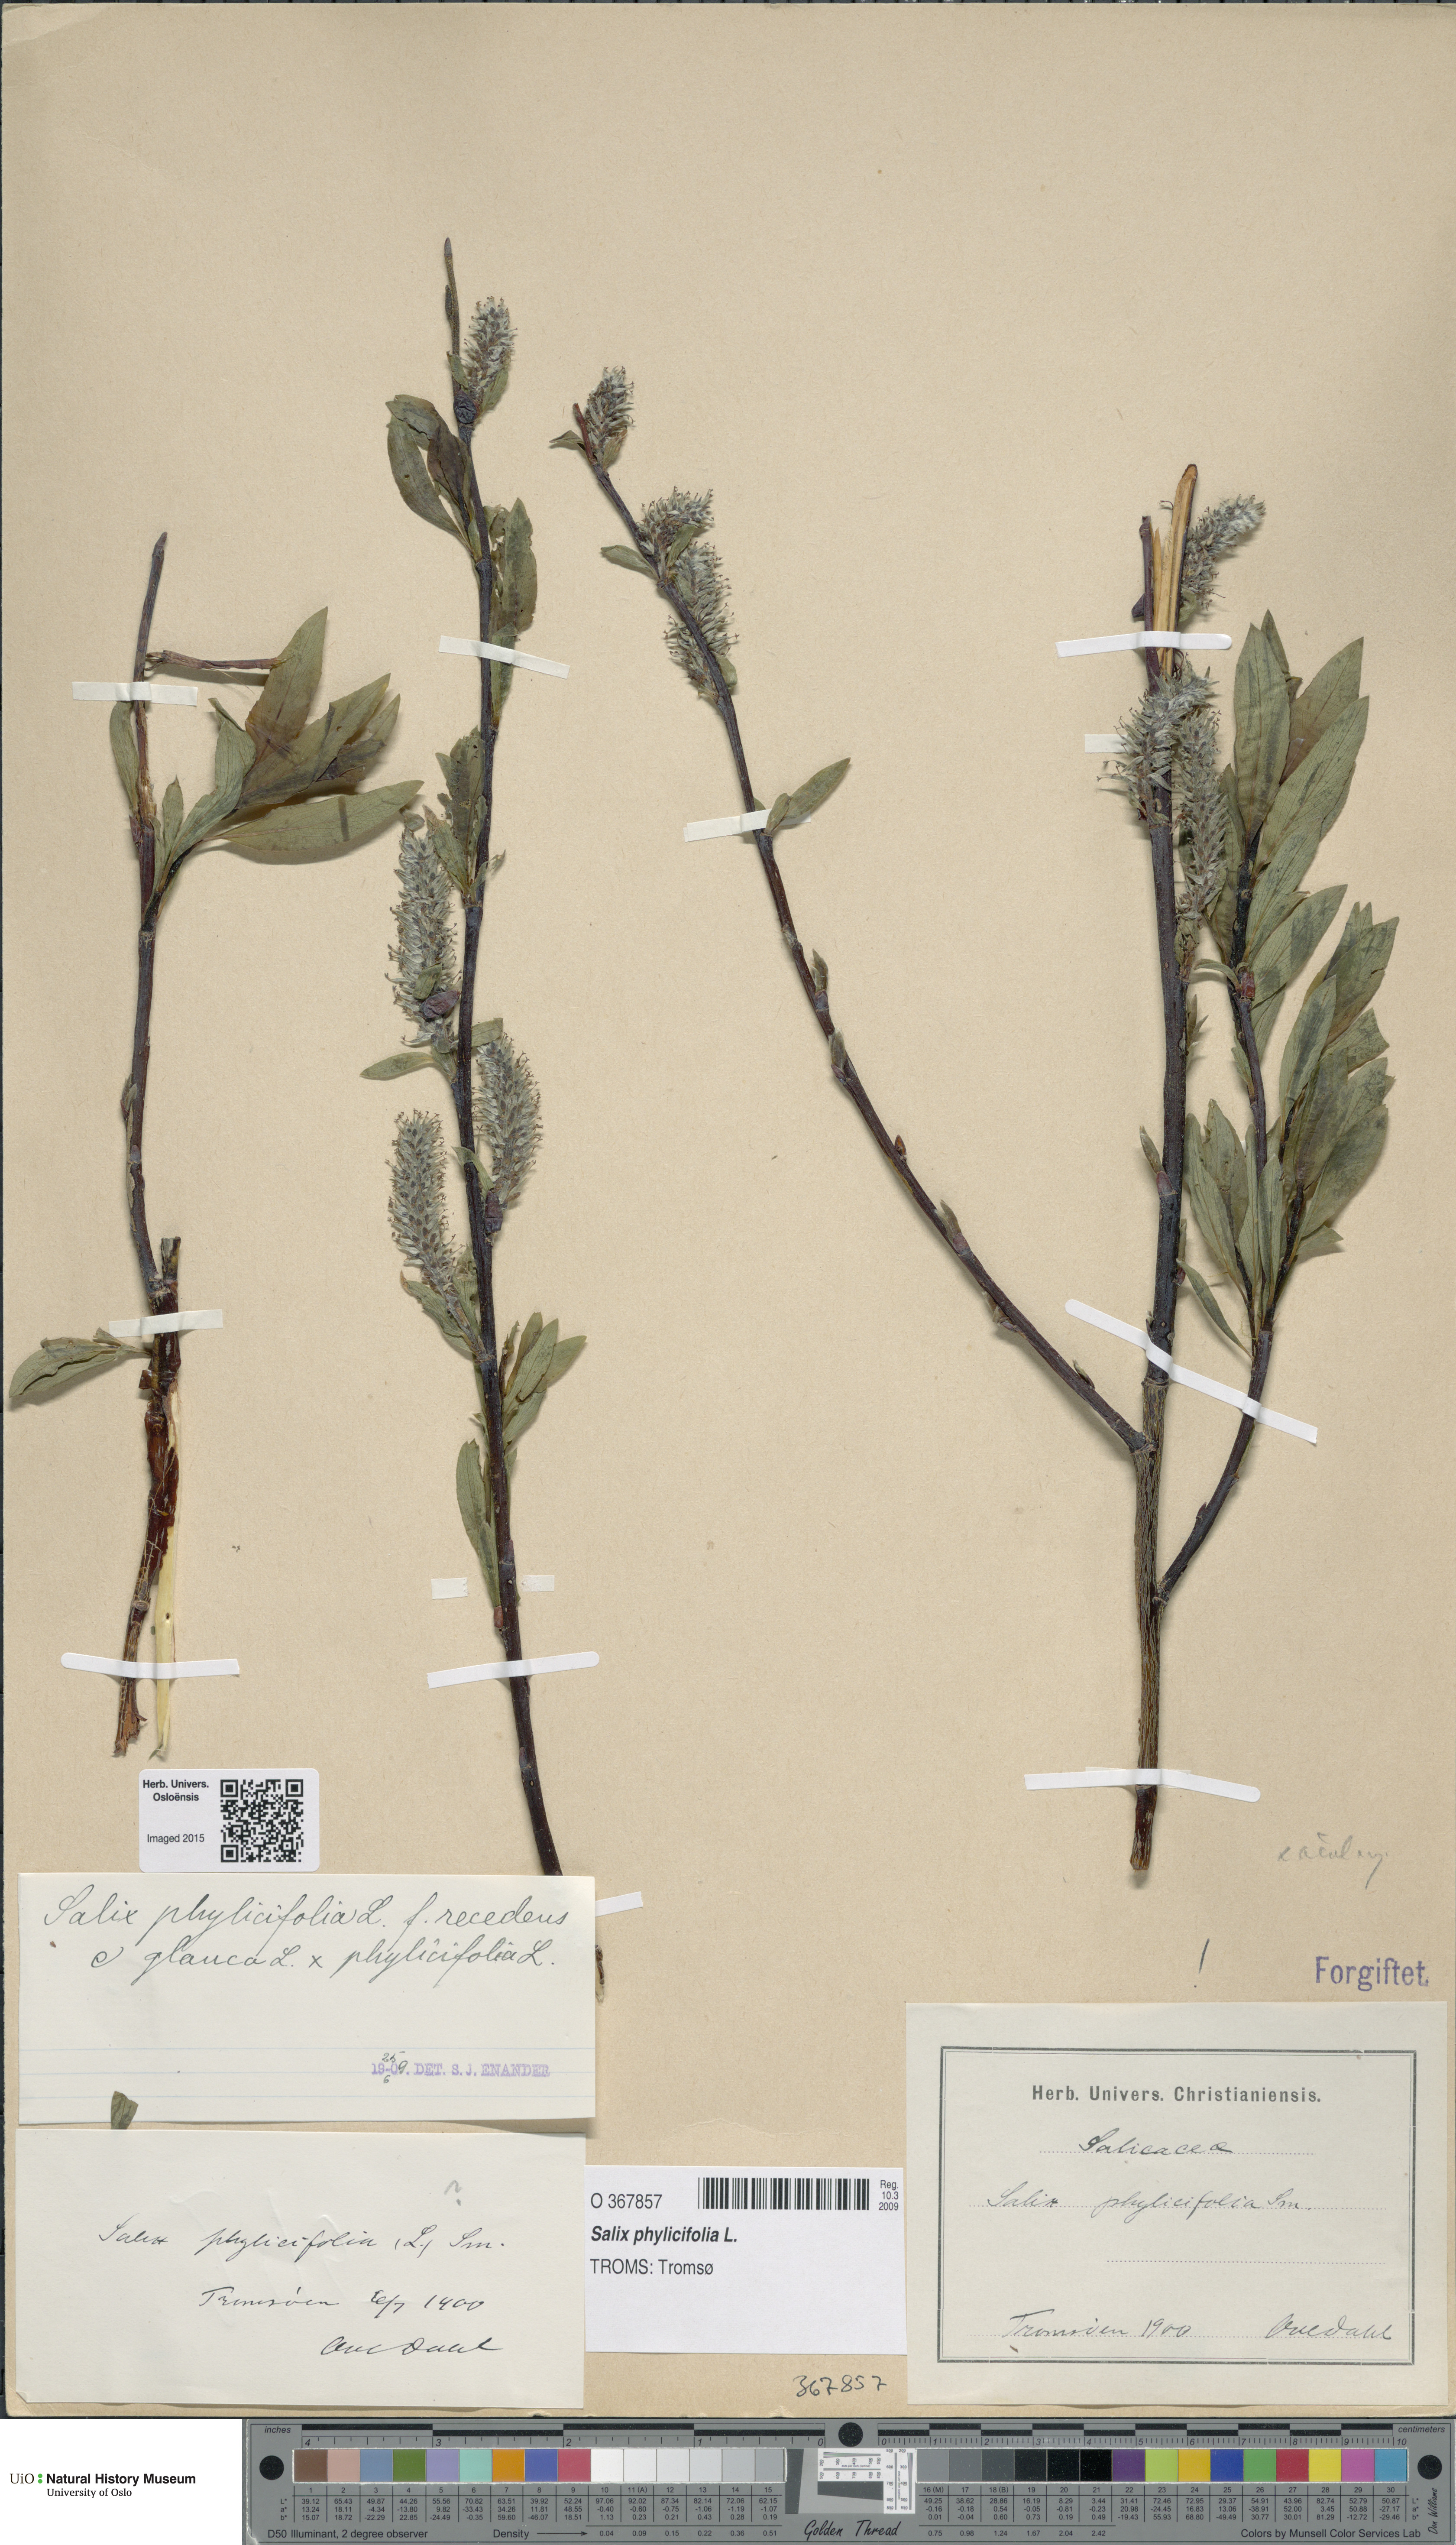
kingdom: Plantae
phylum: Tracheophyta
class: Magnoliopsida
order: Malpighiales
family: Salicaceae
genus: Salix
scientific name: Salix phylicifolia
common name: Tea-leaved willow
